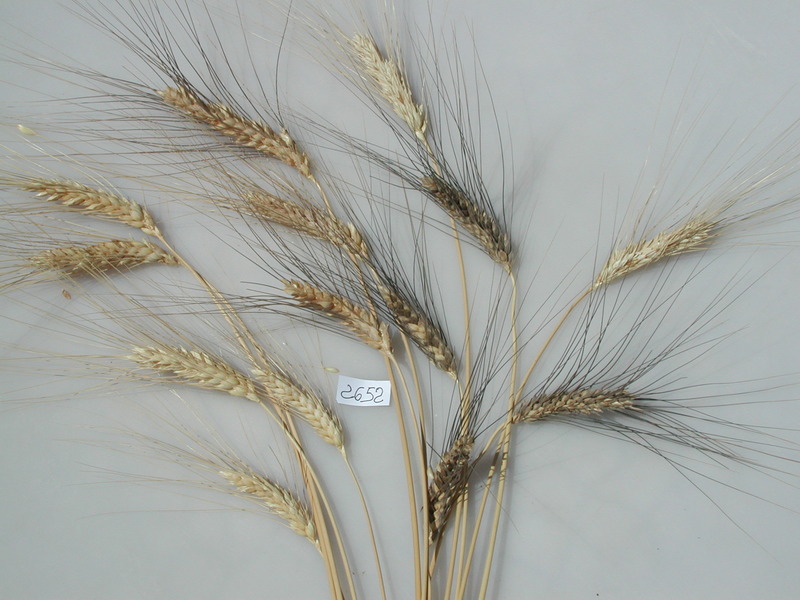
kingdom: Plantae
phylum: Tracheophyta
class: Liliopsida
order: Poales
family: Poaceae
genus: Triticum
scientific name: Triticum turgidum
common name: Wheat
